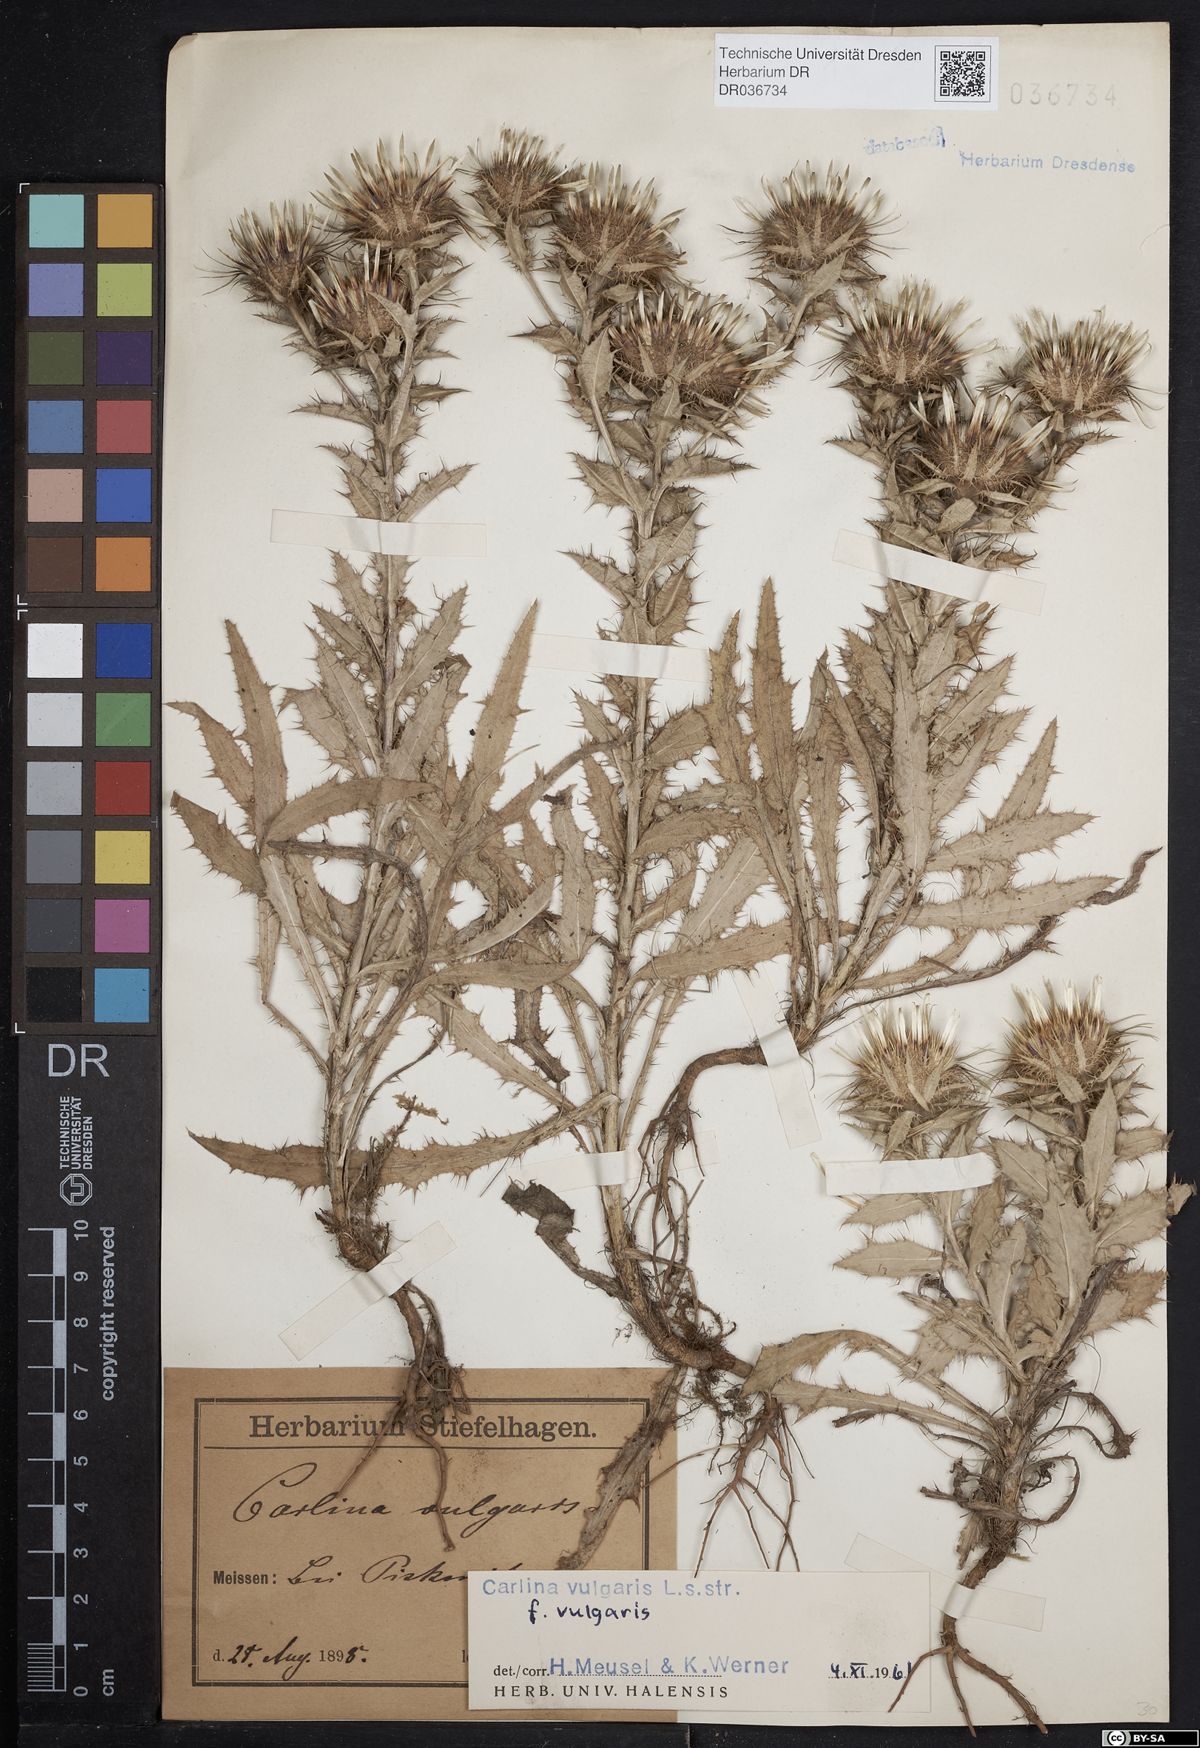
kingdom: Plantae
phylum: Tracheophyta
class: Magnoliopsida
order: Asterales
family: Asteraceae
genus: Carlina
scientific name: Carlina vulgaris
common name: Carline thistle
